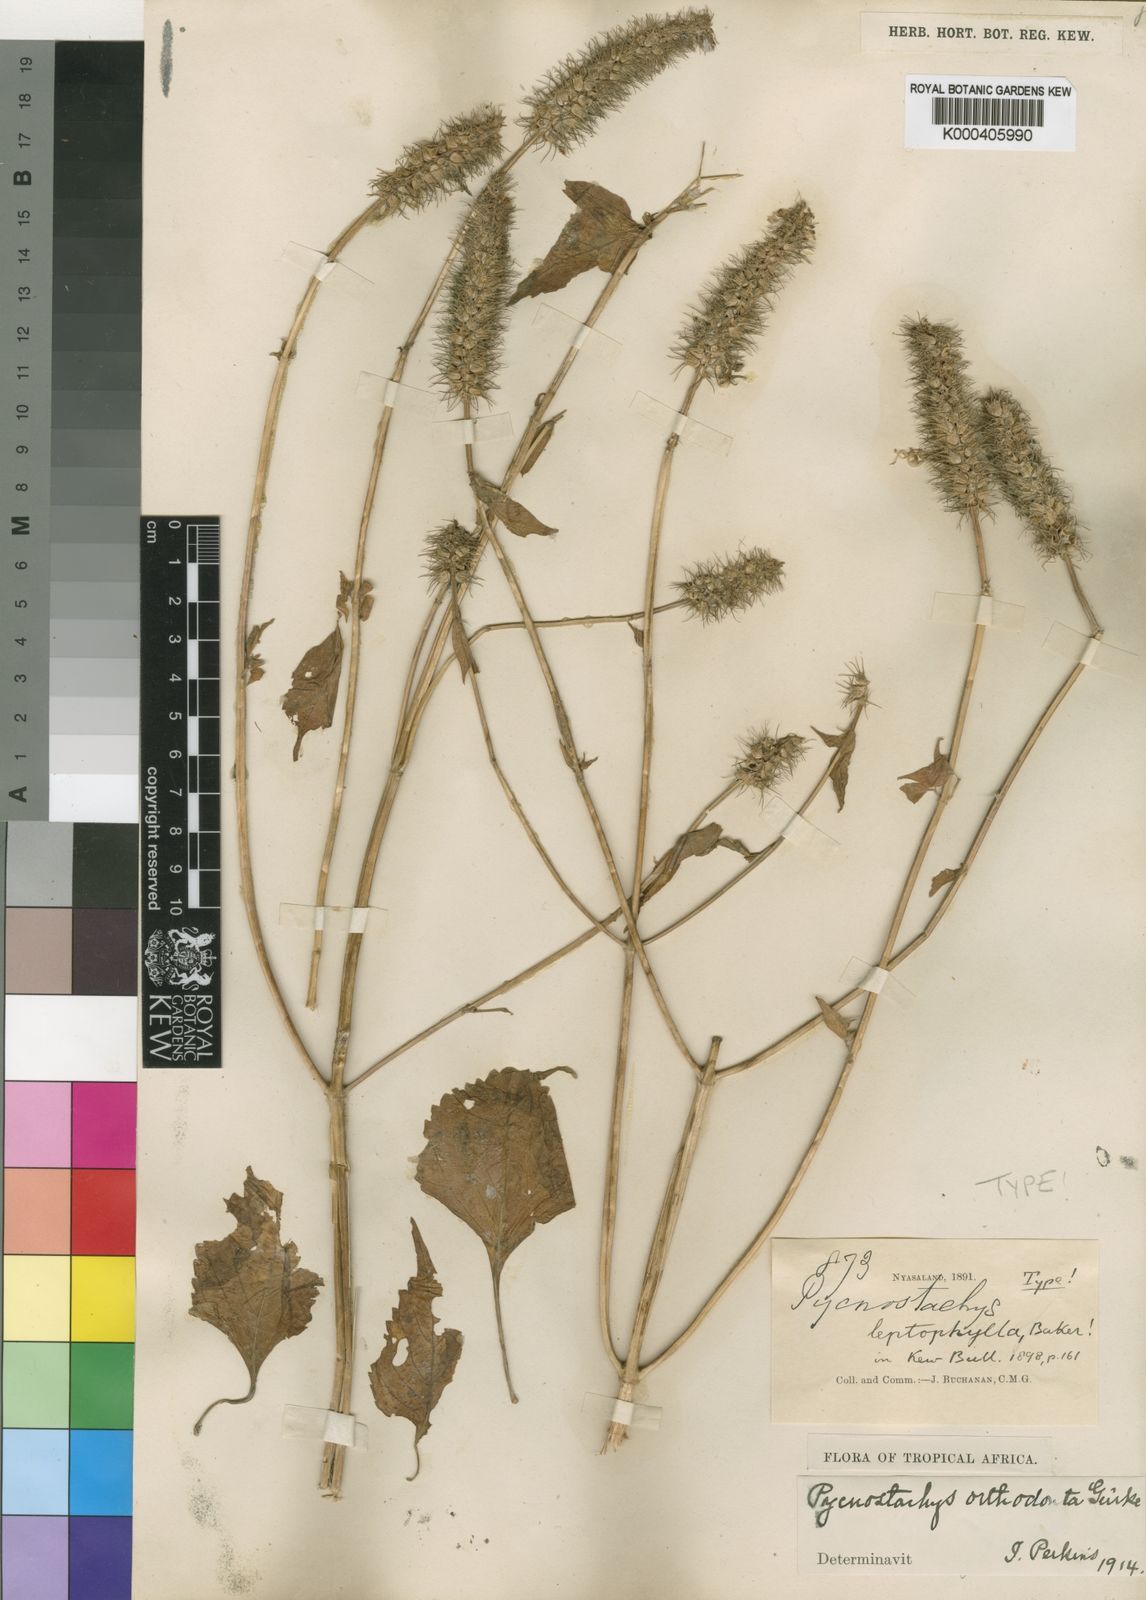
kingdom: Plantae
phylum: Tracheophyta
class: Magnoliopsida
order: Lamiales
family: Lamiaceae
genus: Coleus
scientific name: Coleus
